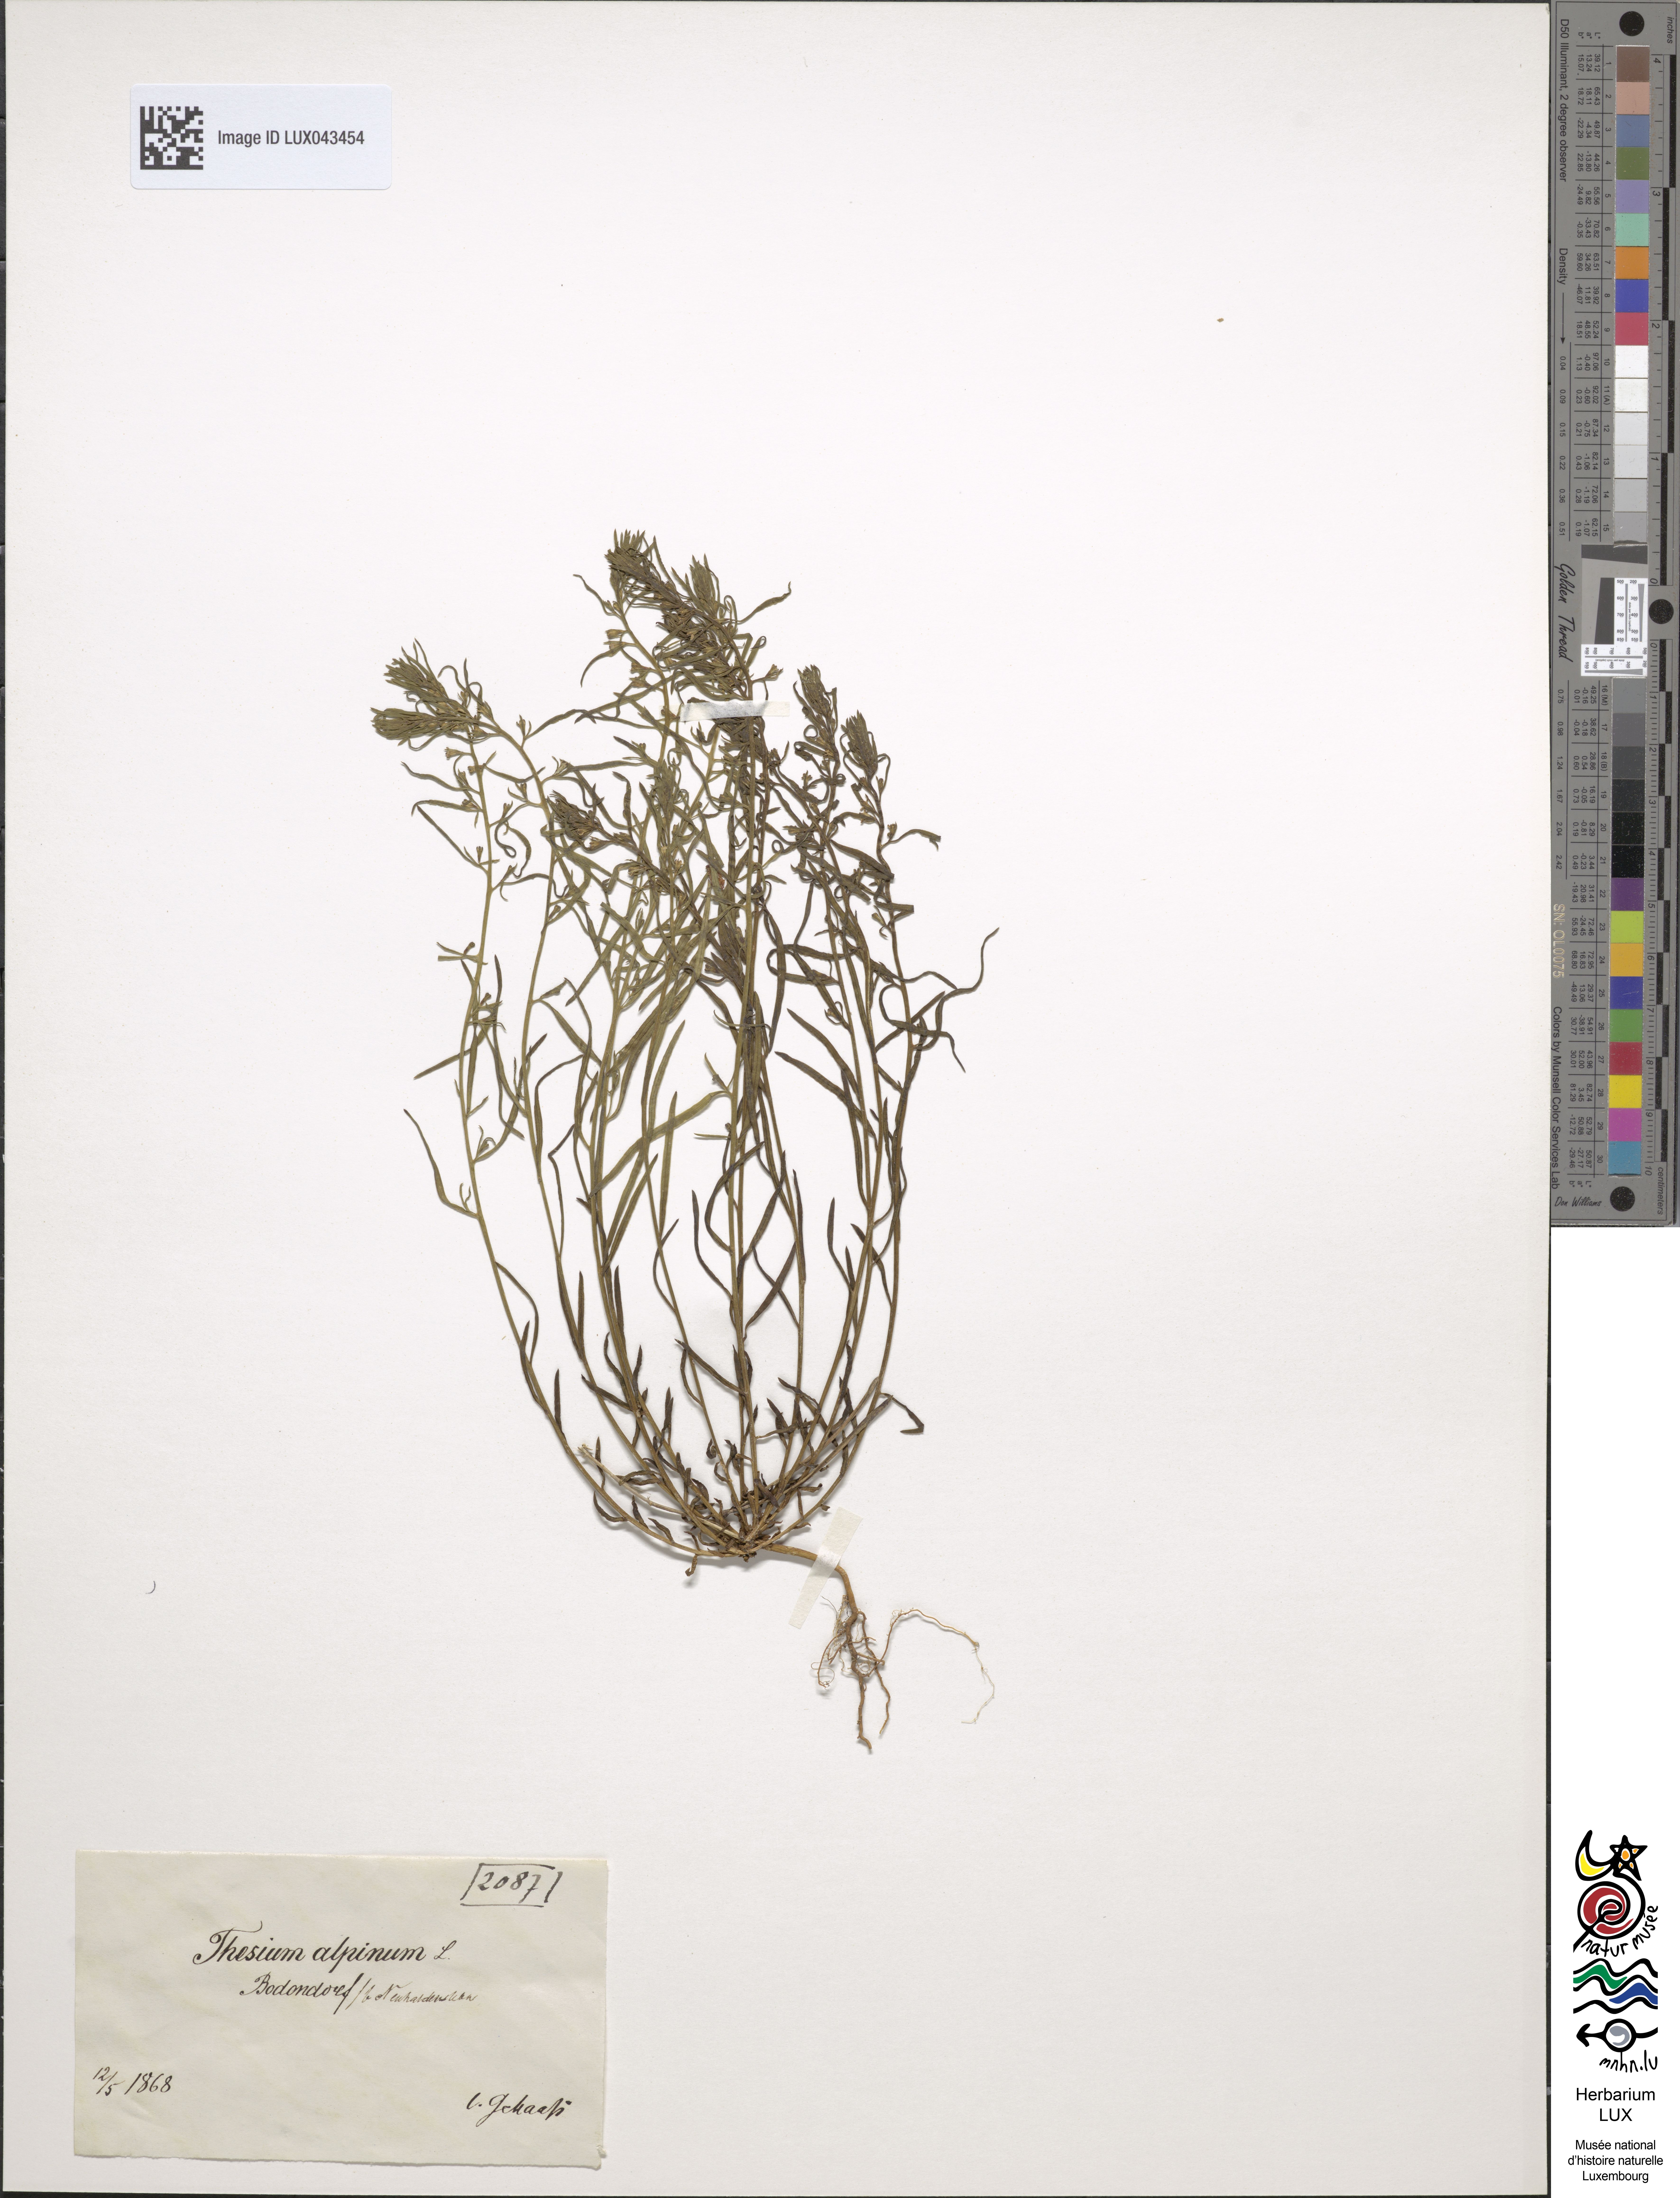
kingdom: Plantae
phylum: Tracheophyta
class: Magnoliopsida
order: Santalales
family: Thesiaceae
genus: Thesium
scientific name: Thesium alpinum
